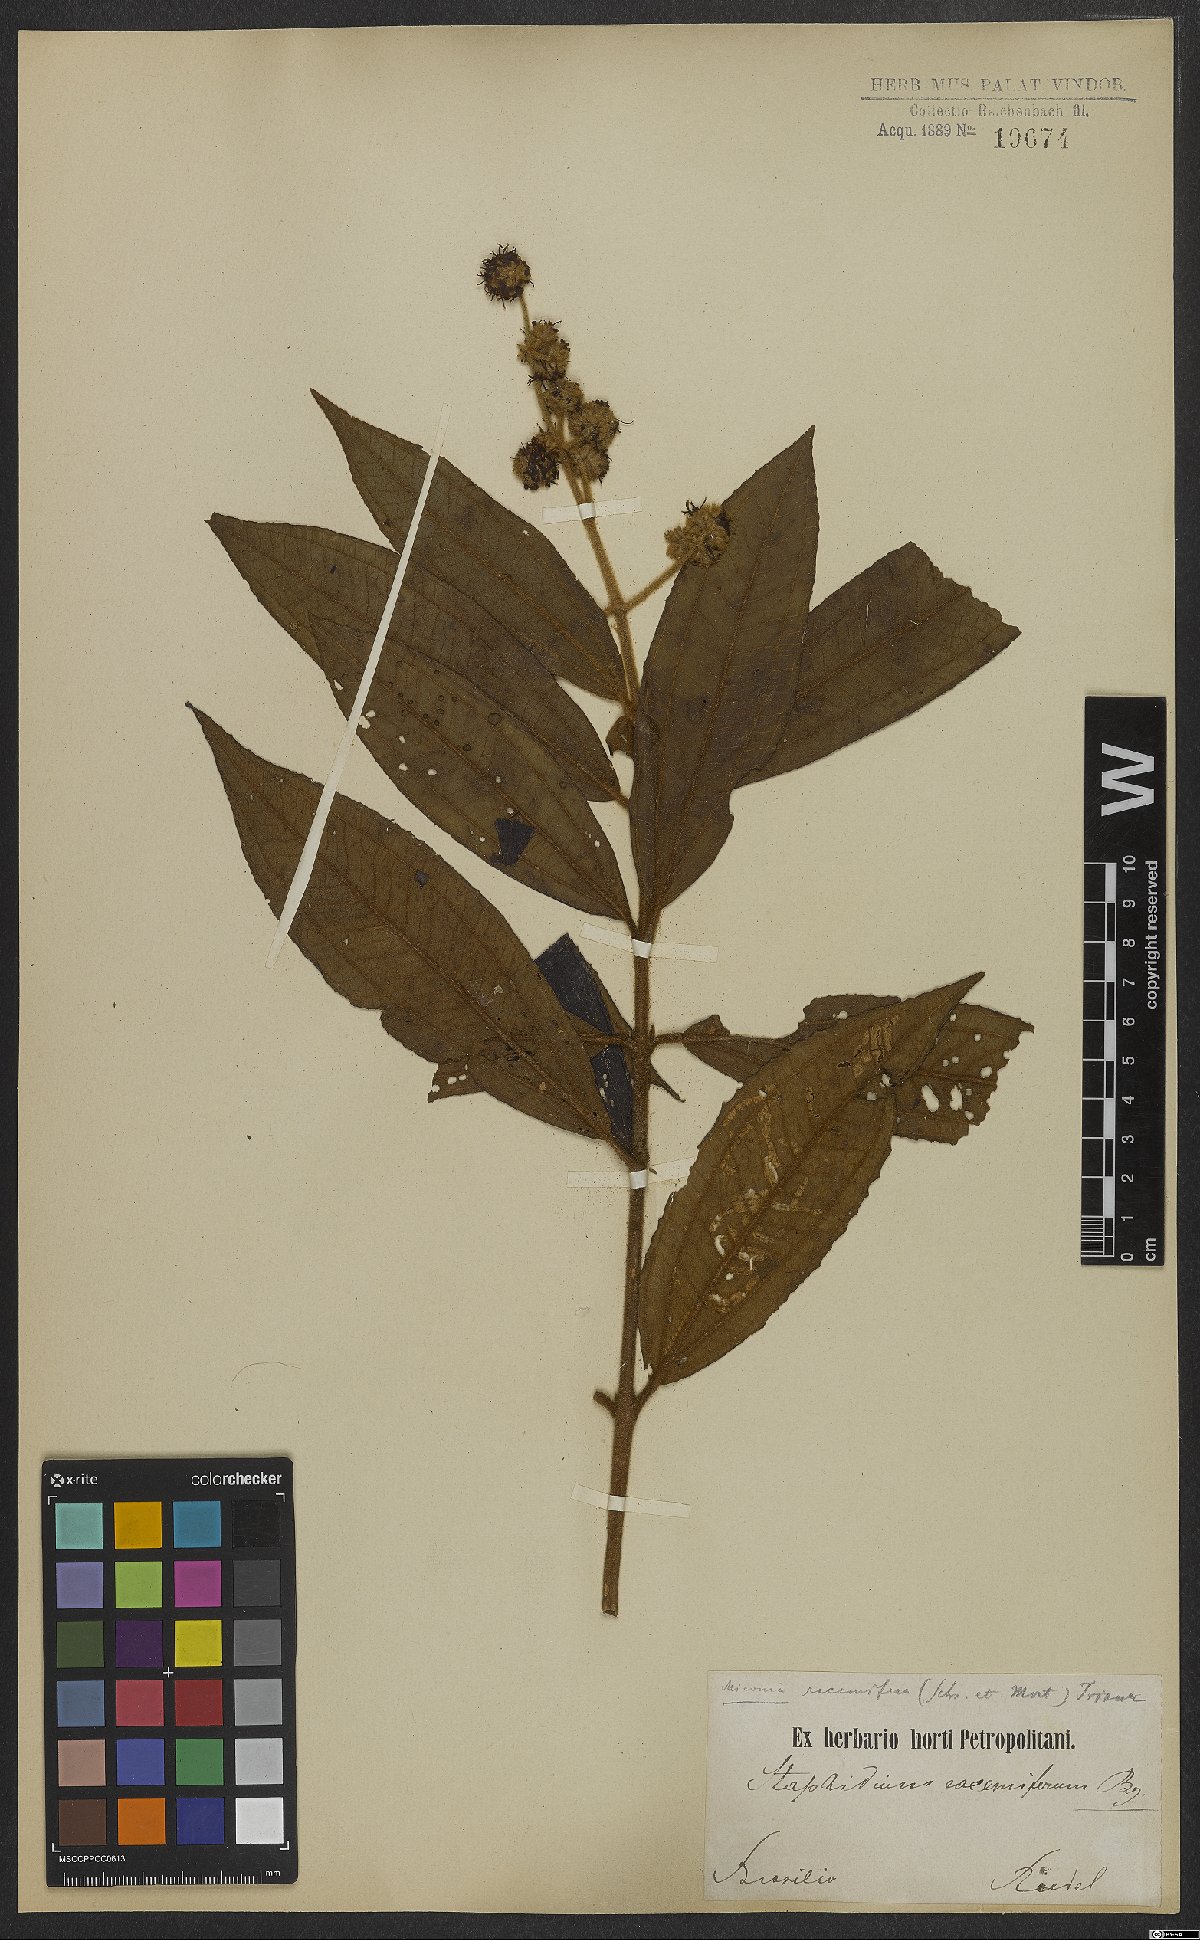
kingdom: Plantae
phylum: Tracheophyta
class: Magnoliopsida
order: Myrtales
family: Melastomataceae
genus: Miconia
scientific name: Miconia racemifera
